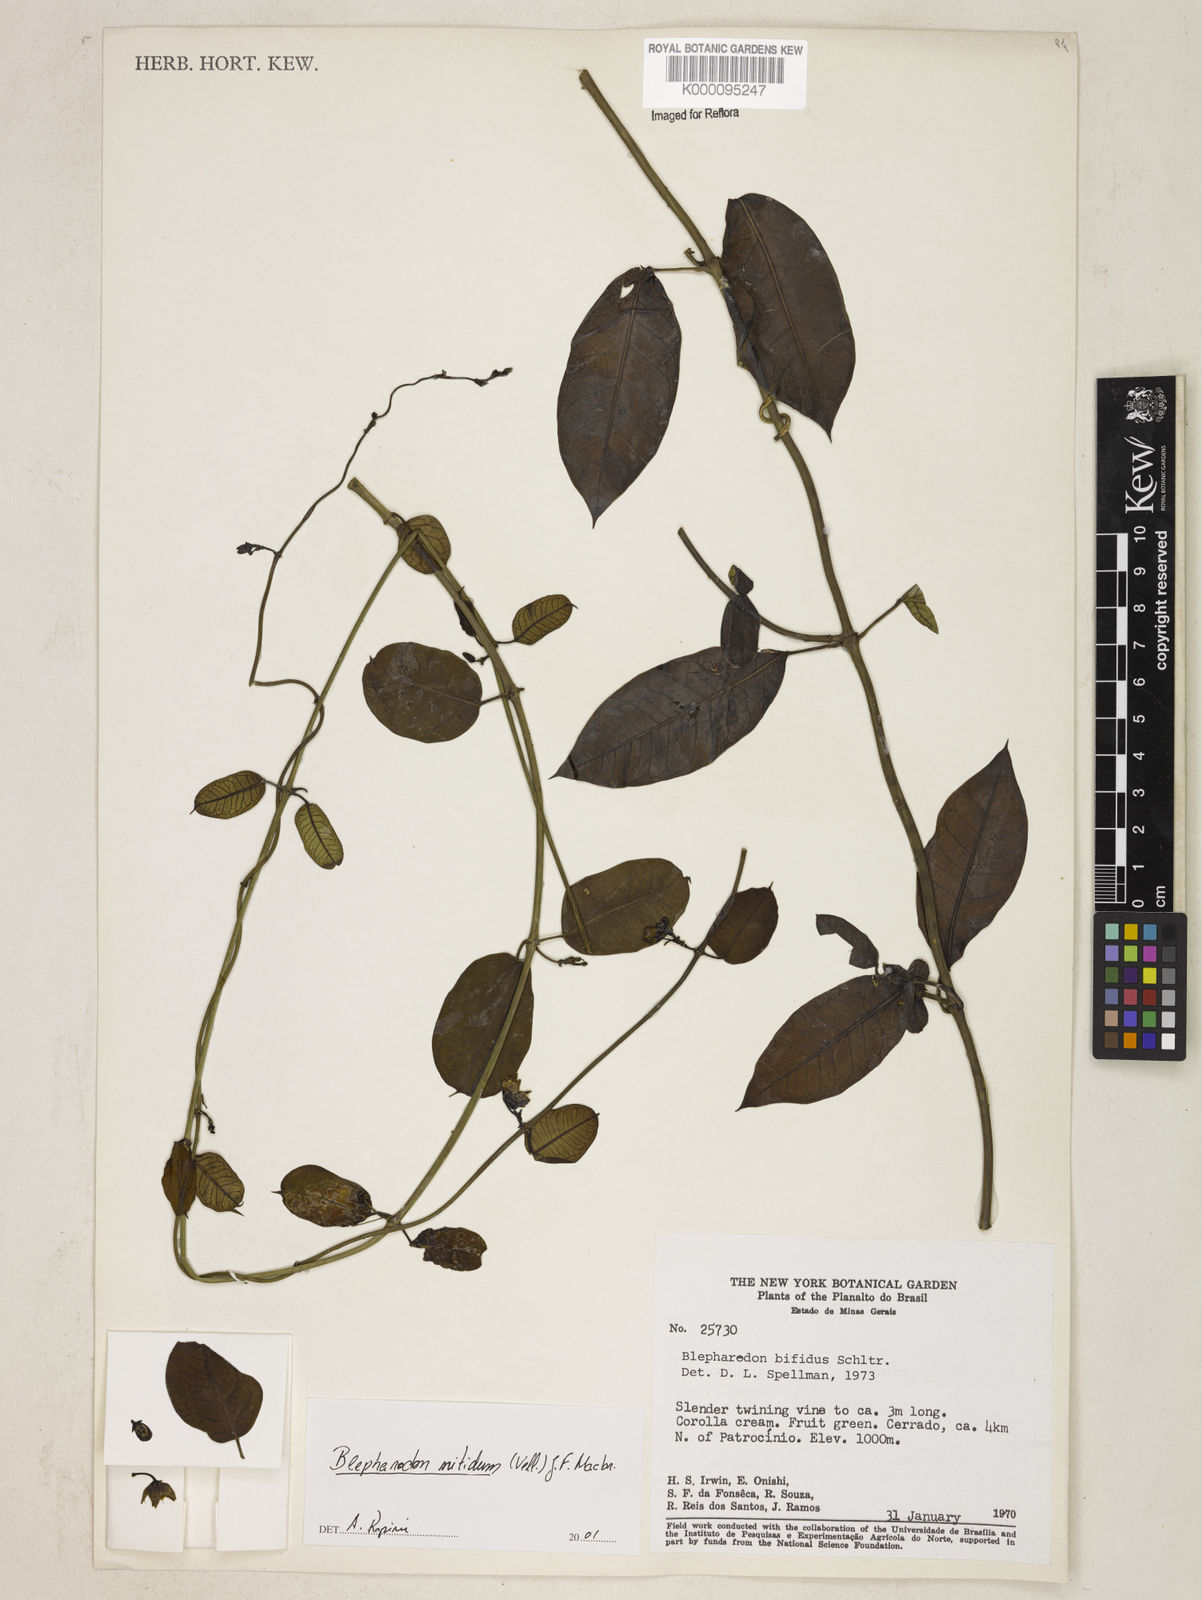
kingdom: Plantae
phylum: Tracheophyta
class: Magnoliopsida
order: Gentianales
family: Apocynaceae
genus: Blepharodon
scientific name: Blepharodon pictum
